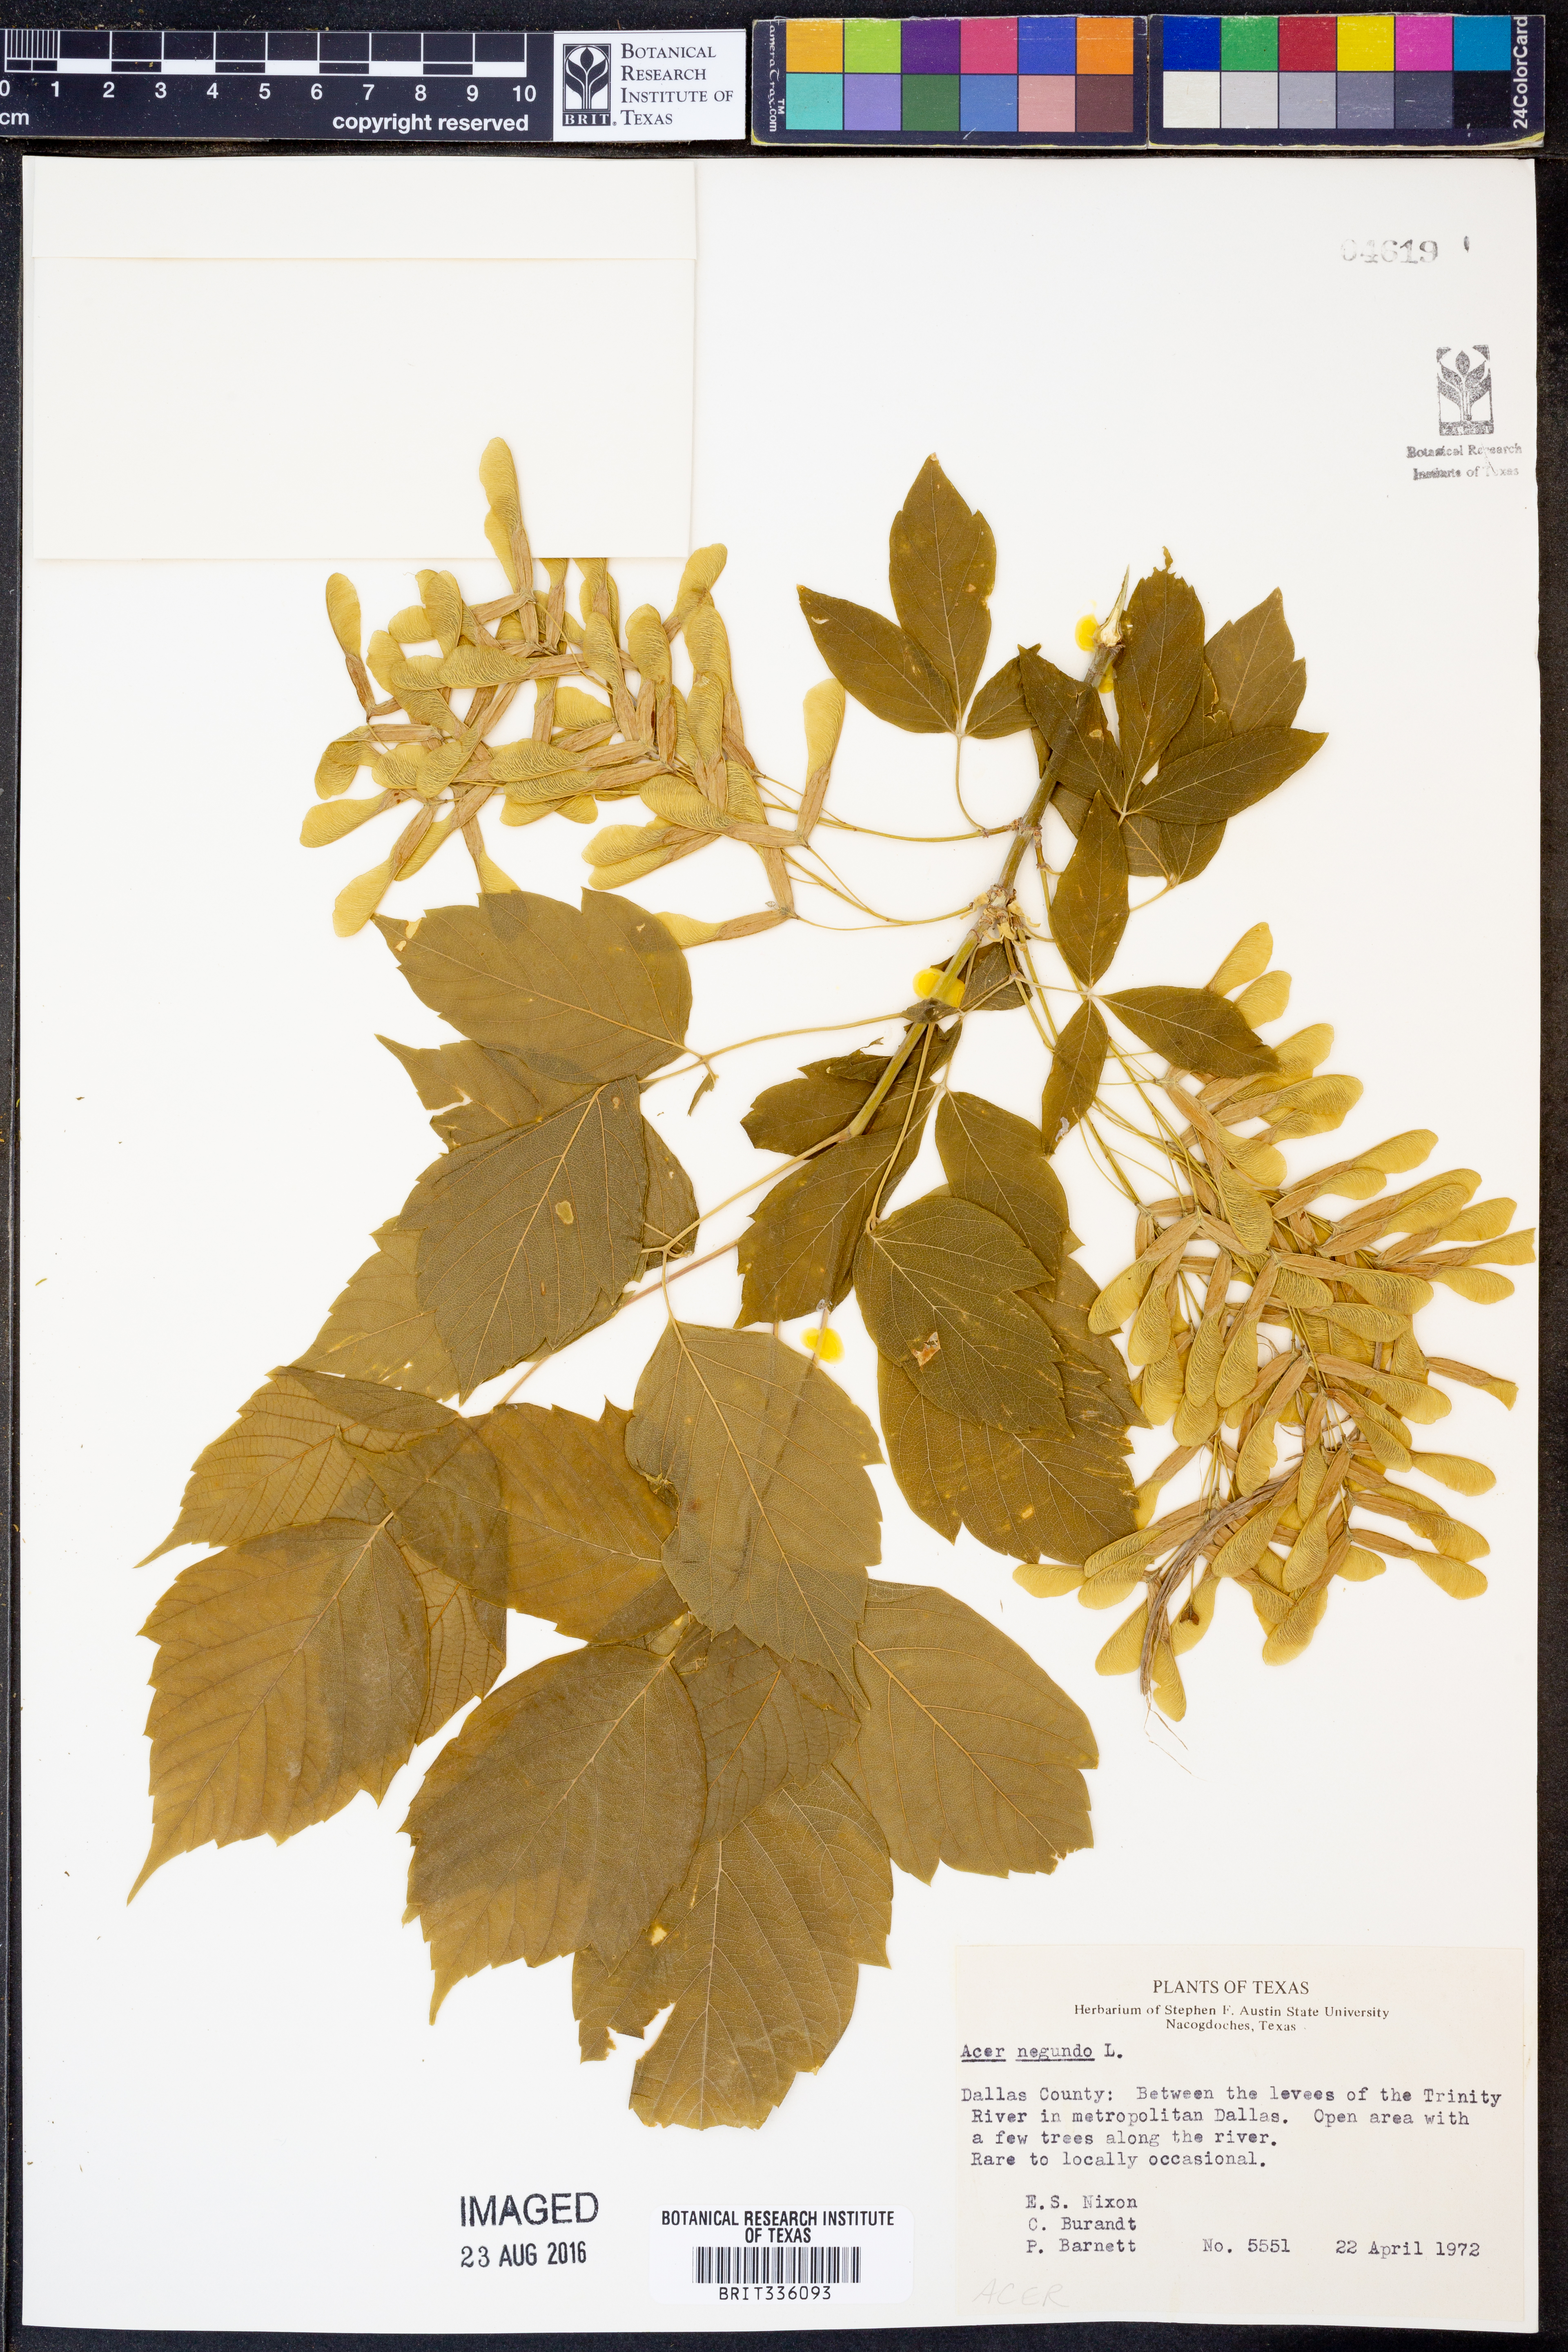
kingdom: Plantae
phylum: Tracheophyta
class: Magnoliopsida
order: Sapindales
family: Sapindaceae
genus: Acer
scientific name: Acer negundo
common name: Ashleaf maple
